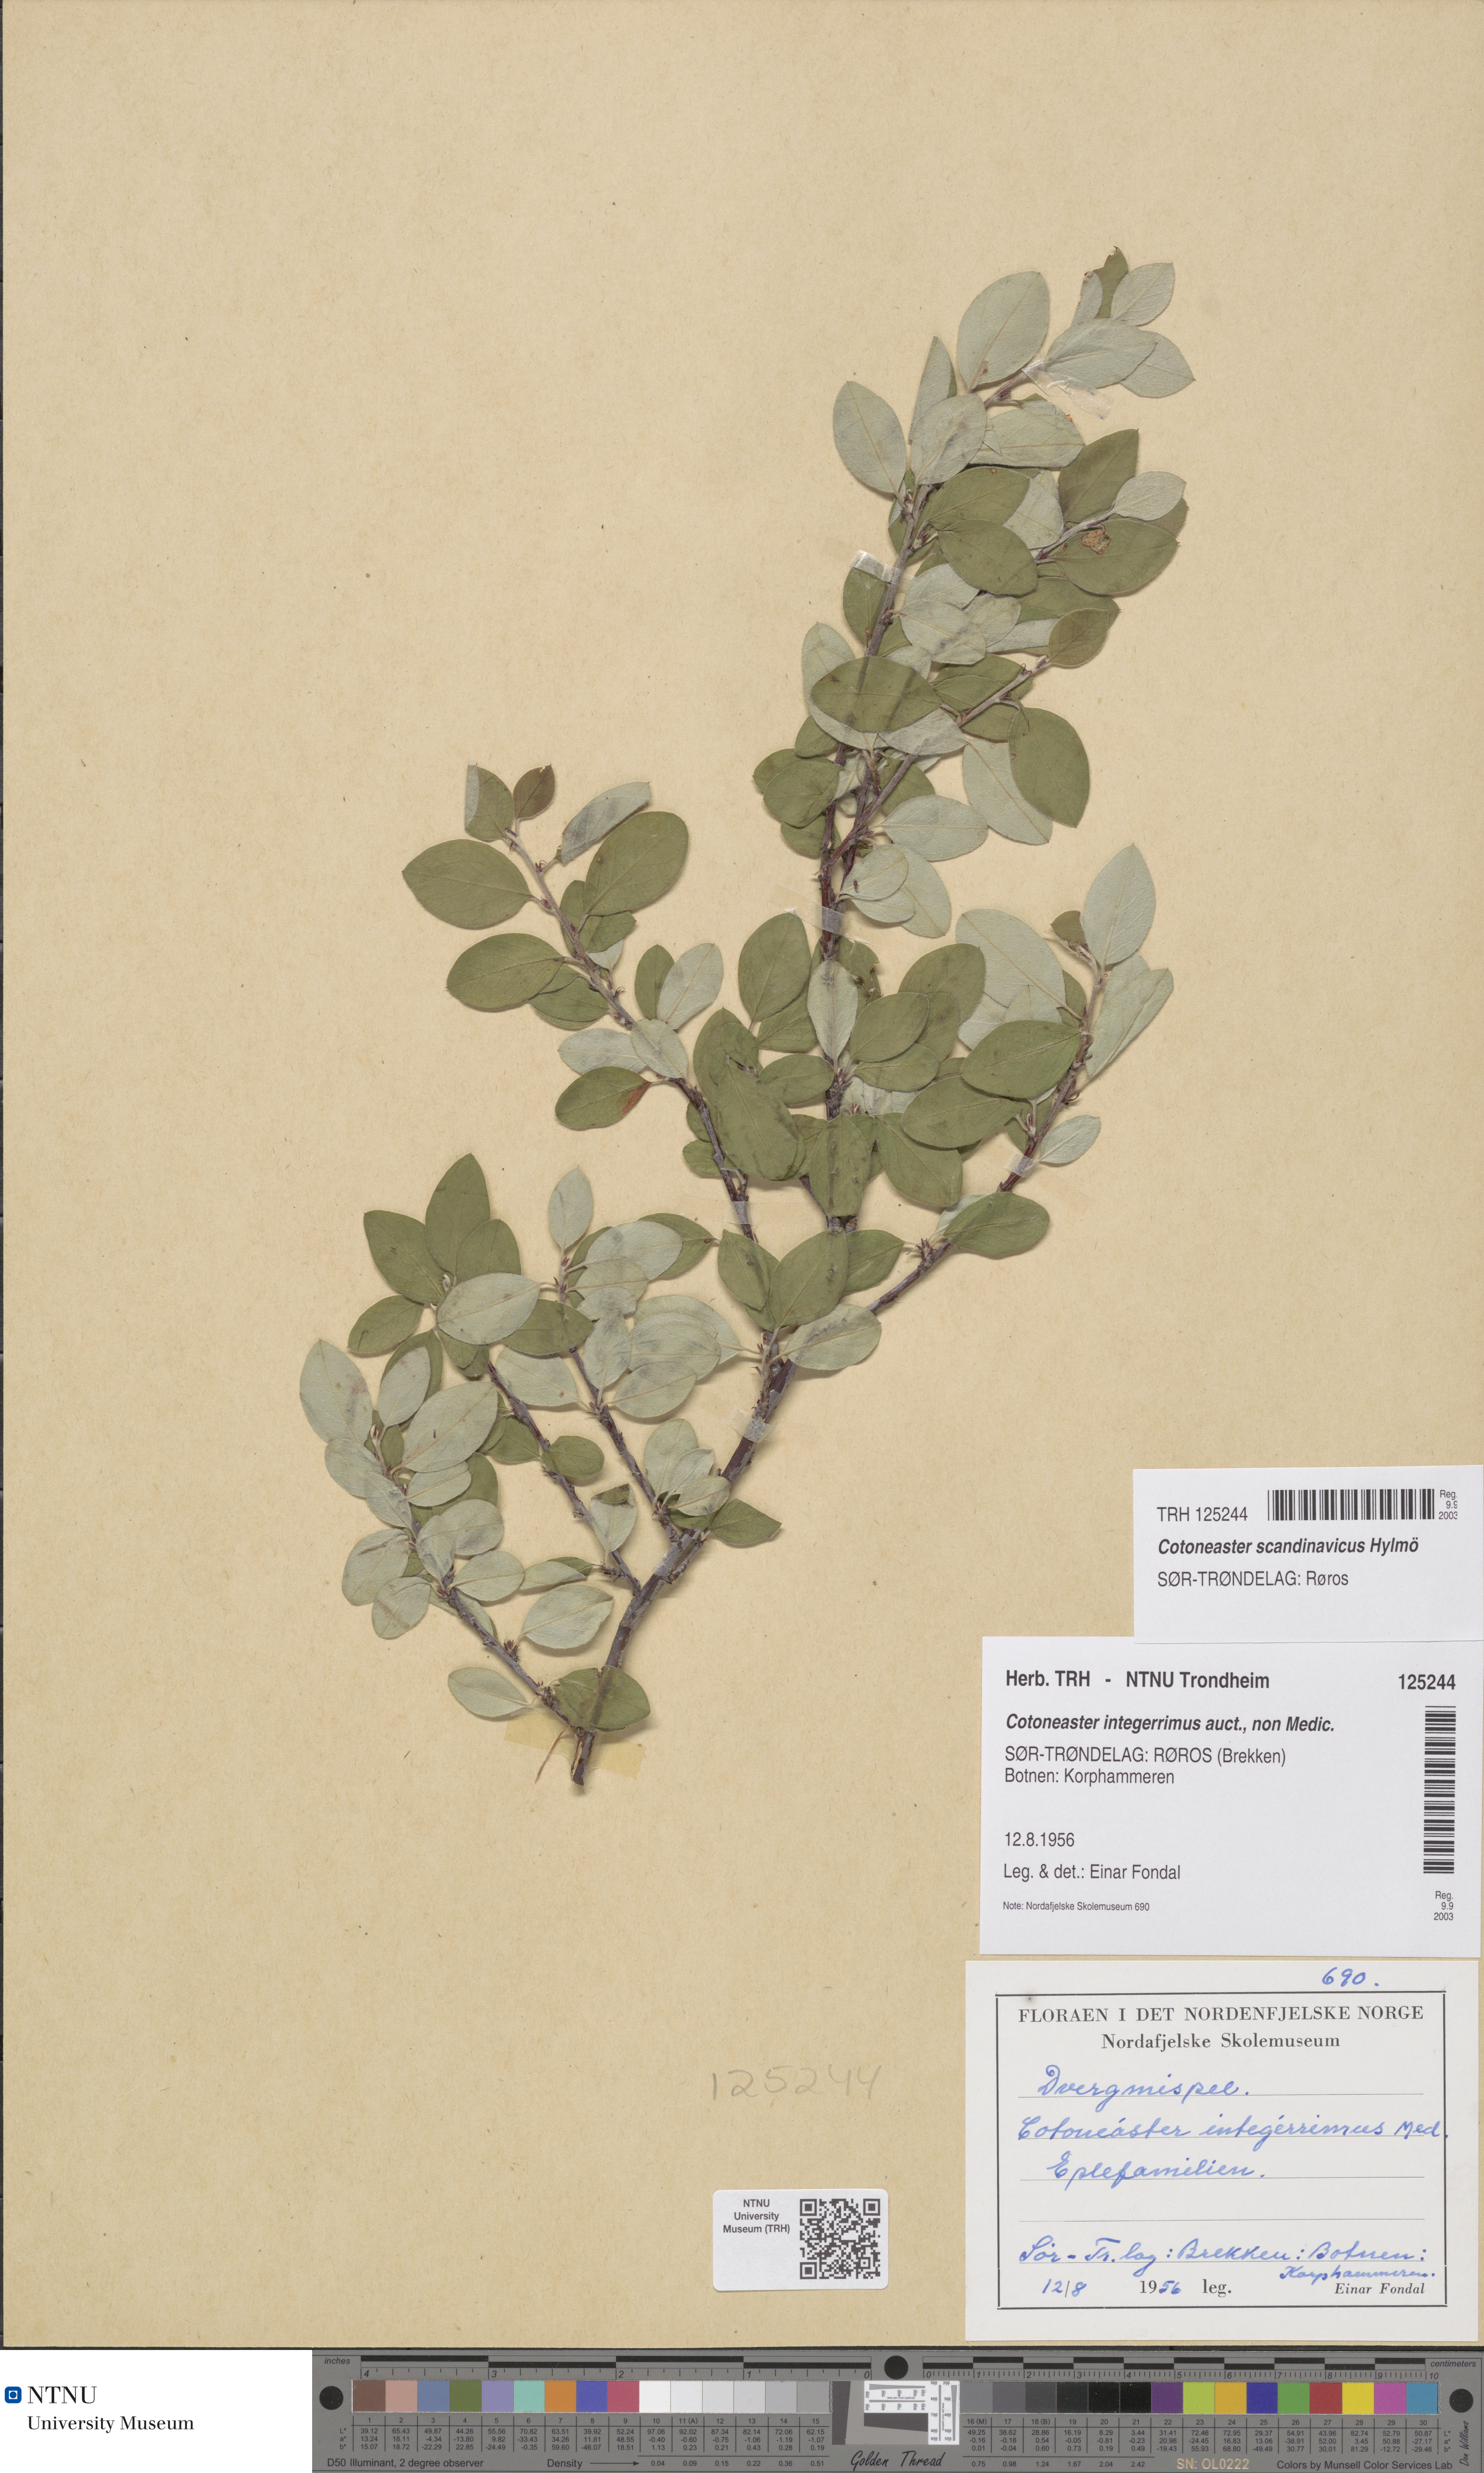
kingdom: Plantae
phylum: Tracheophyta
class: Magnoliopsida
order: Rosales
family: Rosaceae
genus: Cotoneaster
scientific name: Cotoneaster integerrimus
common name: Wild cotoneaster
